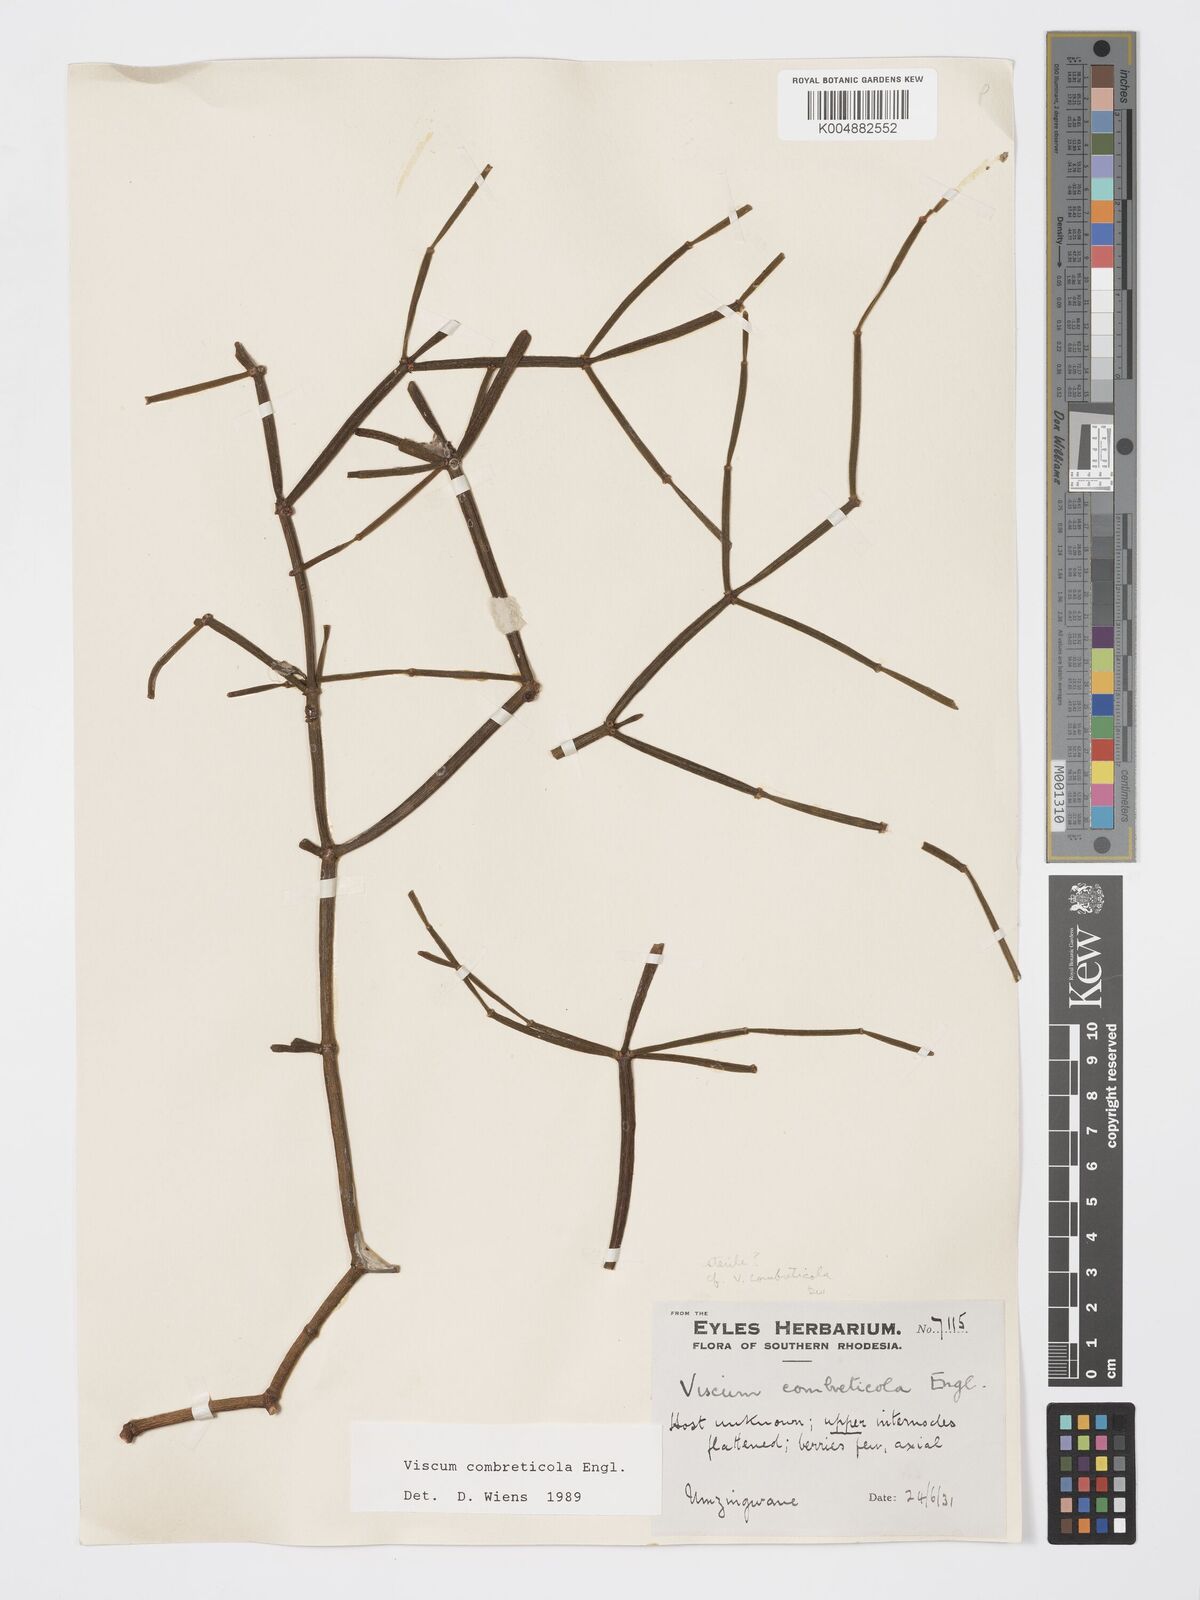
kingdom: Plantae
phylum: Tracheophyta
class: Magnoliopsida
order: Santalales
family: Viscaceae
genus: Viscum
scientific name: Viscum combreticola
